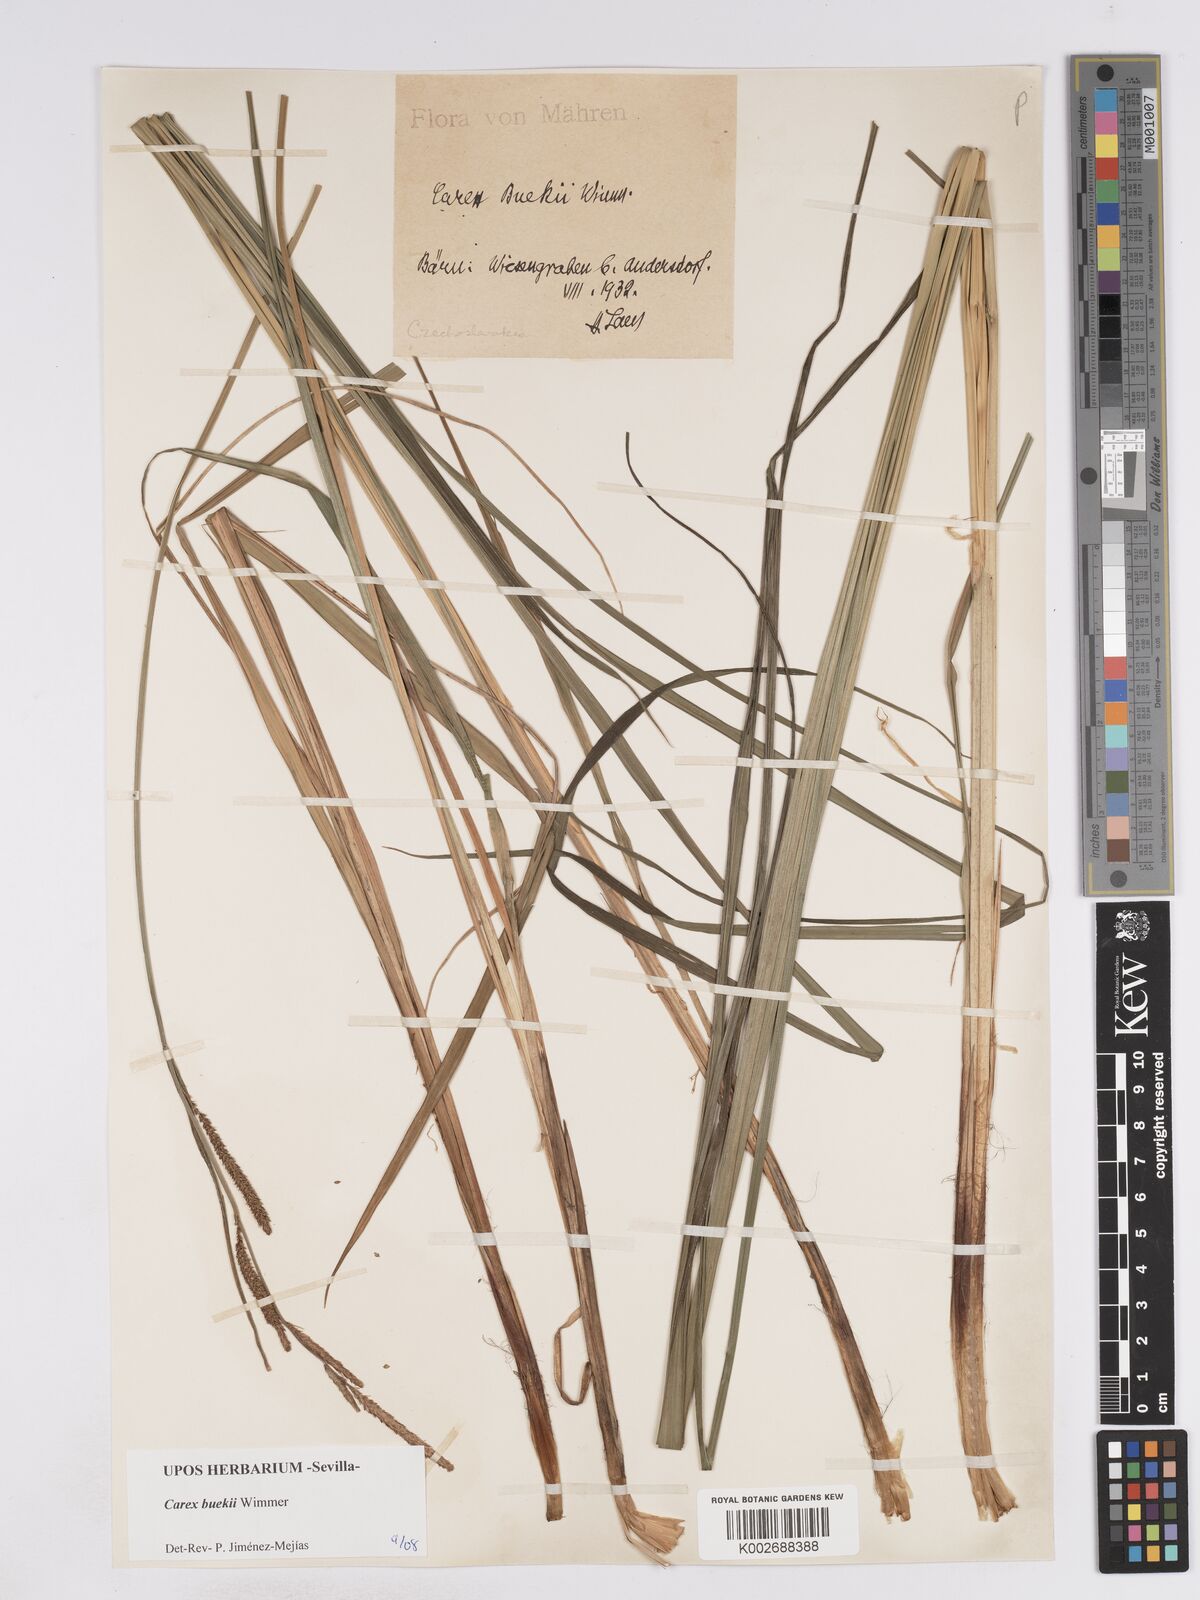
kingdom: Plantae
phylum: Tracheophyta
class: Liliopsida
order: Poales
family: Cyperaceae
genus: Carex
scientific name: Carex buekii
